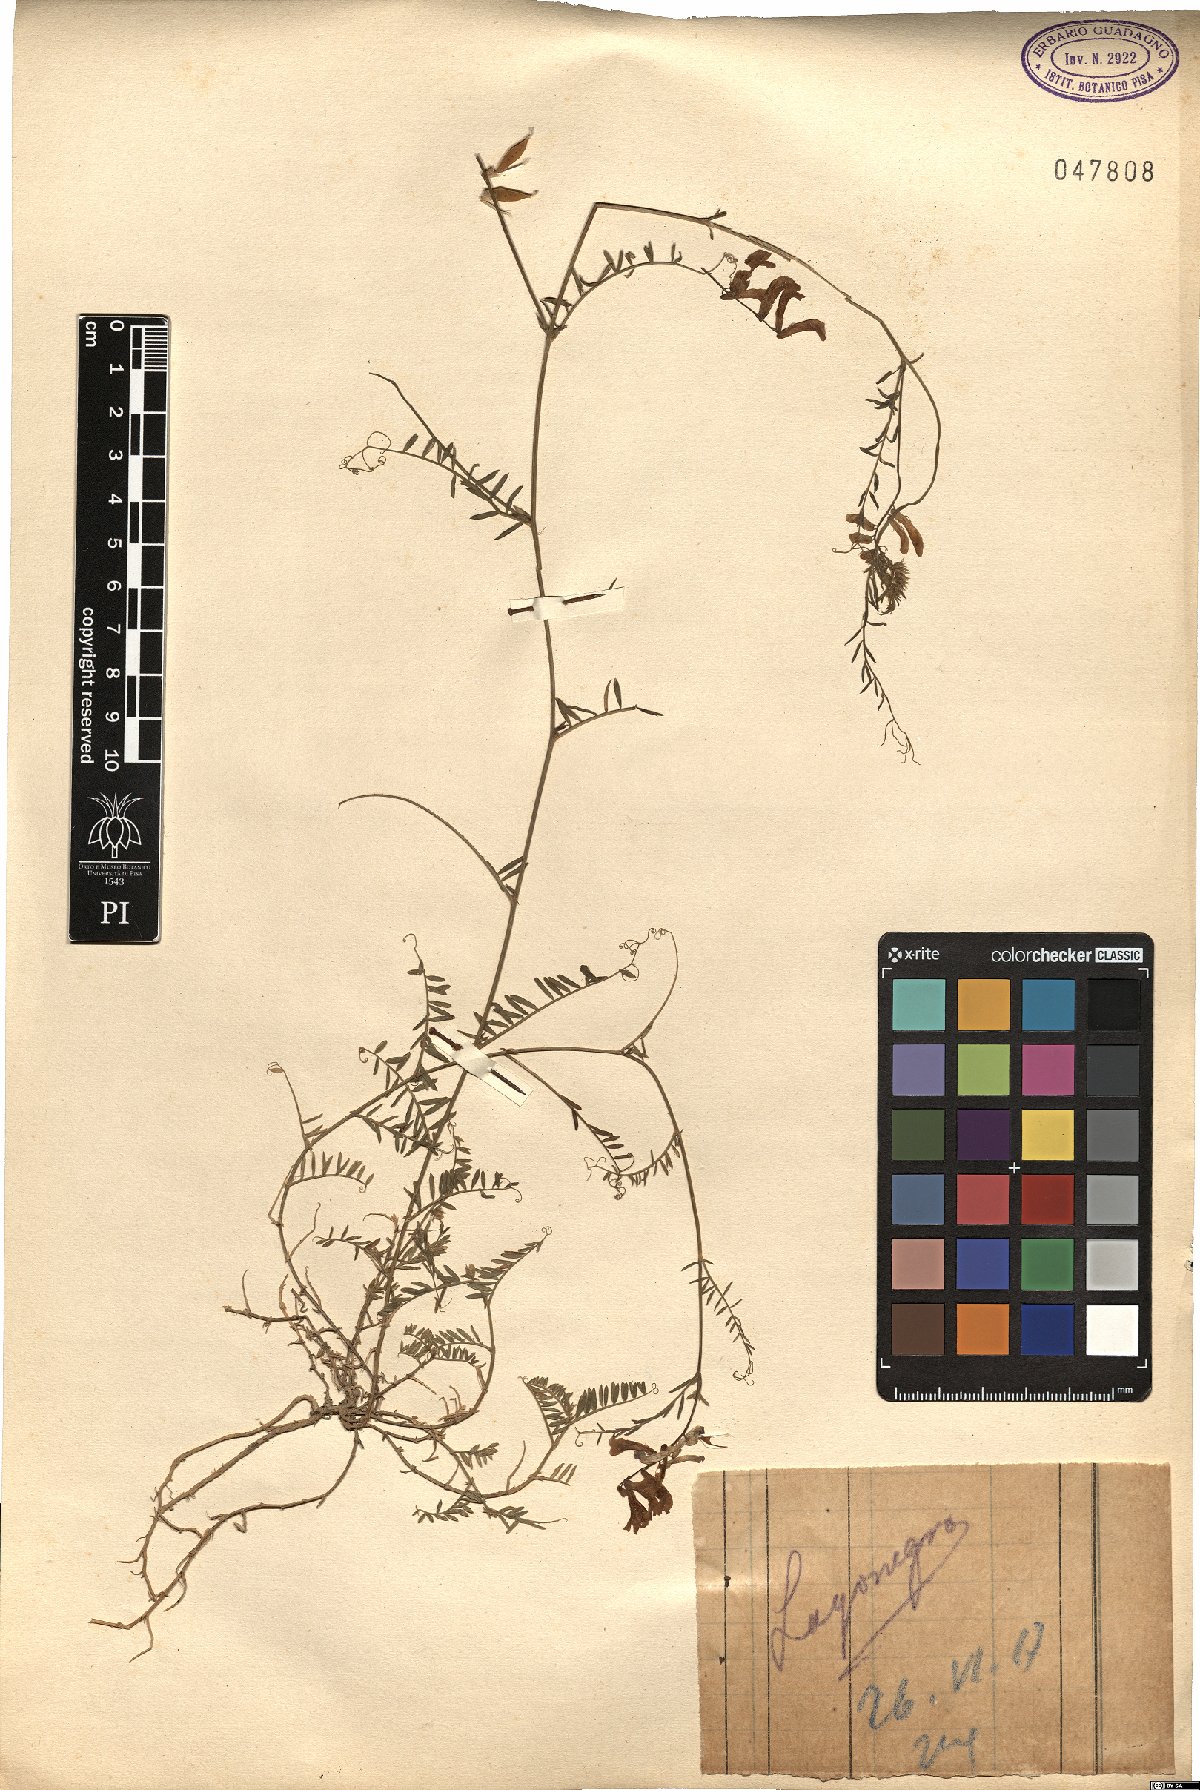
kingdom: Plantae
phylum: Tracheophyta
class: Magnoliopsida
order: Fabales
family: Fabaceae
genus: Vicia
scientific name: Vicia
